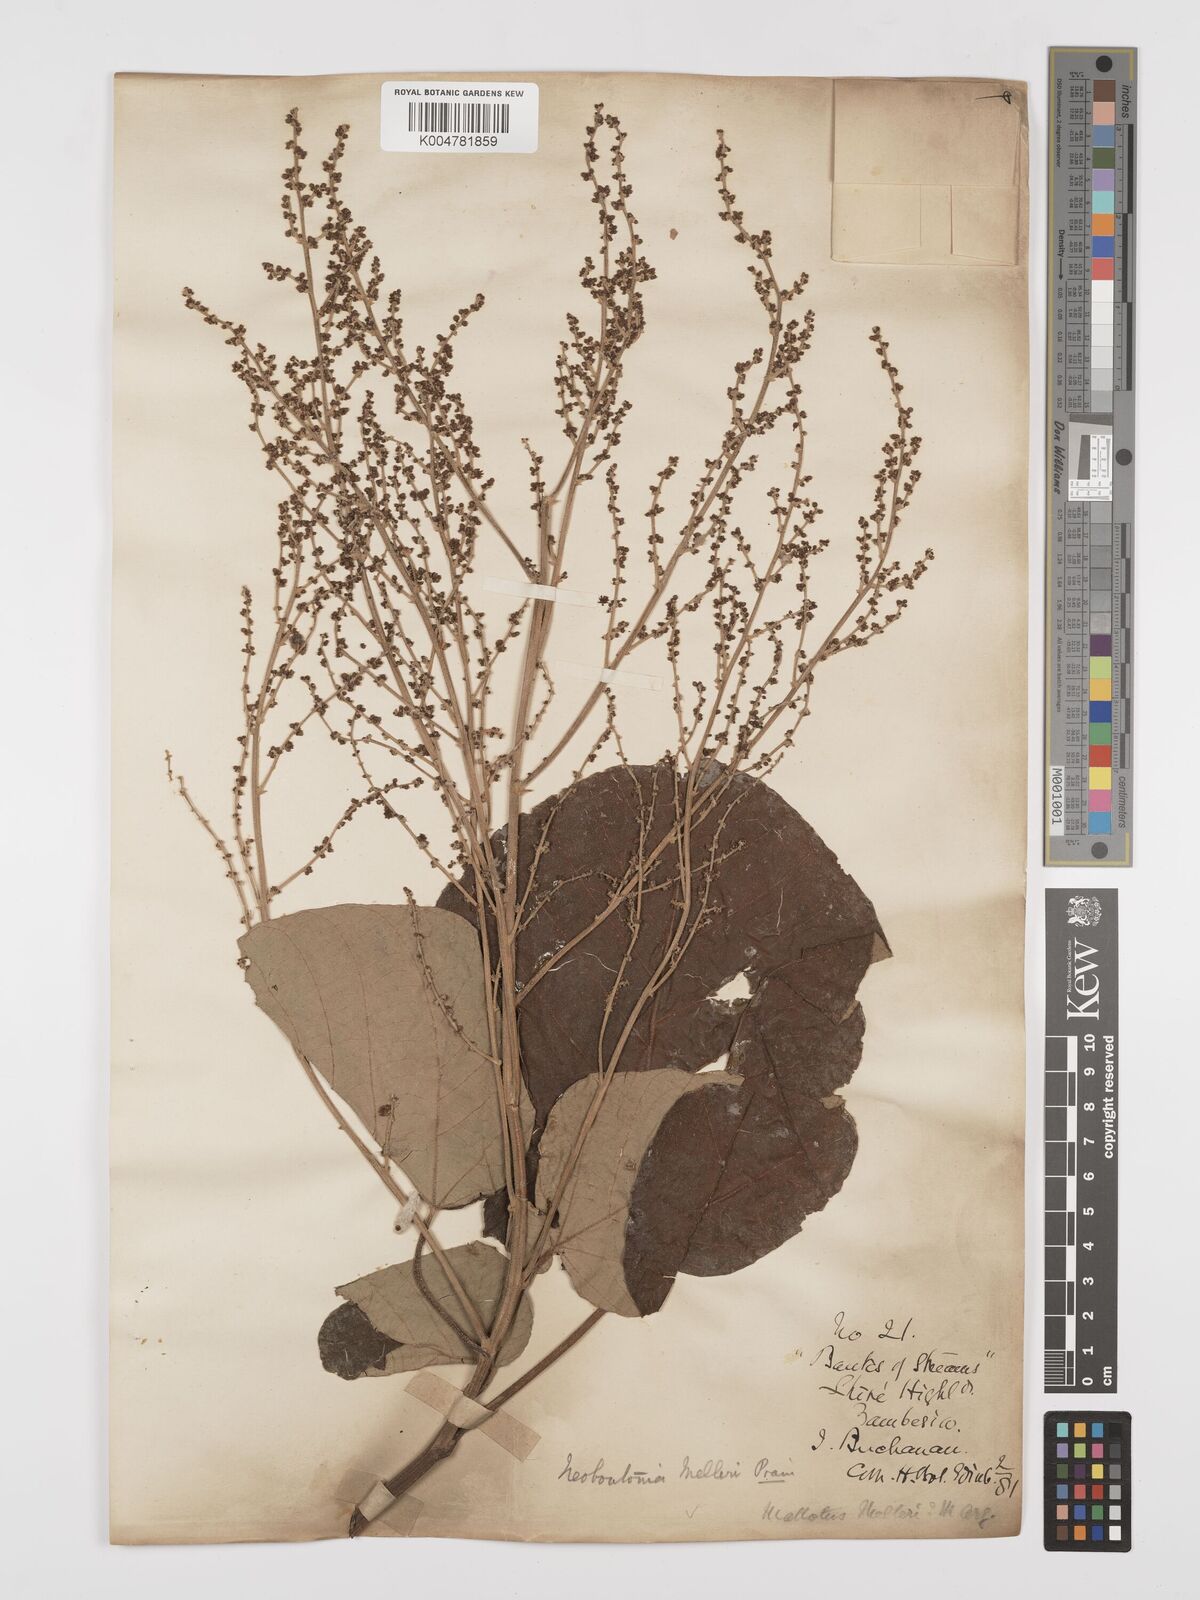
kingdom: Plantae
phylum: Tracheophyta
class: Magnoliopsida
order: Malpighiales
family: Euphorbiaceae
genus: Neoboutonia
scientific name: Neoboutonia melleri
